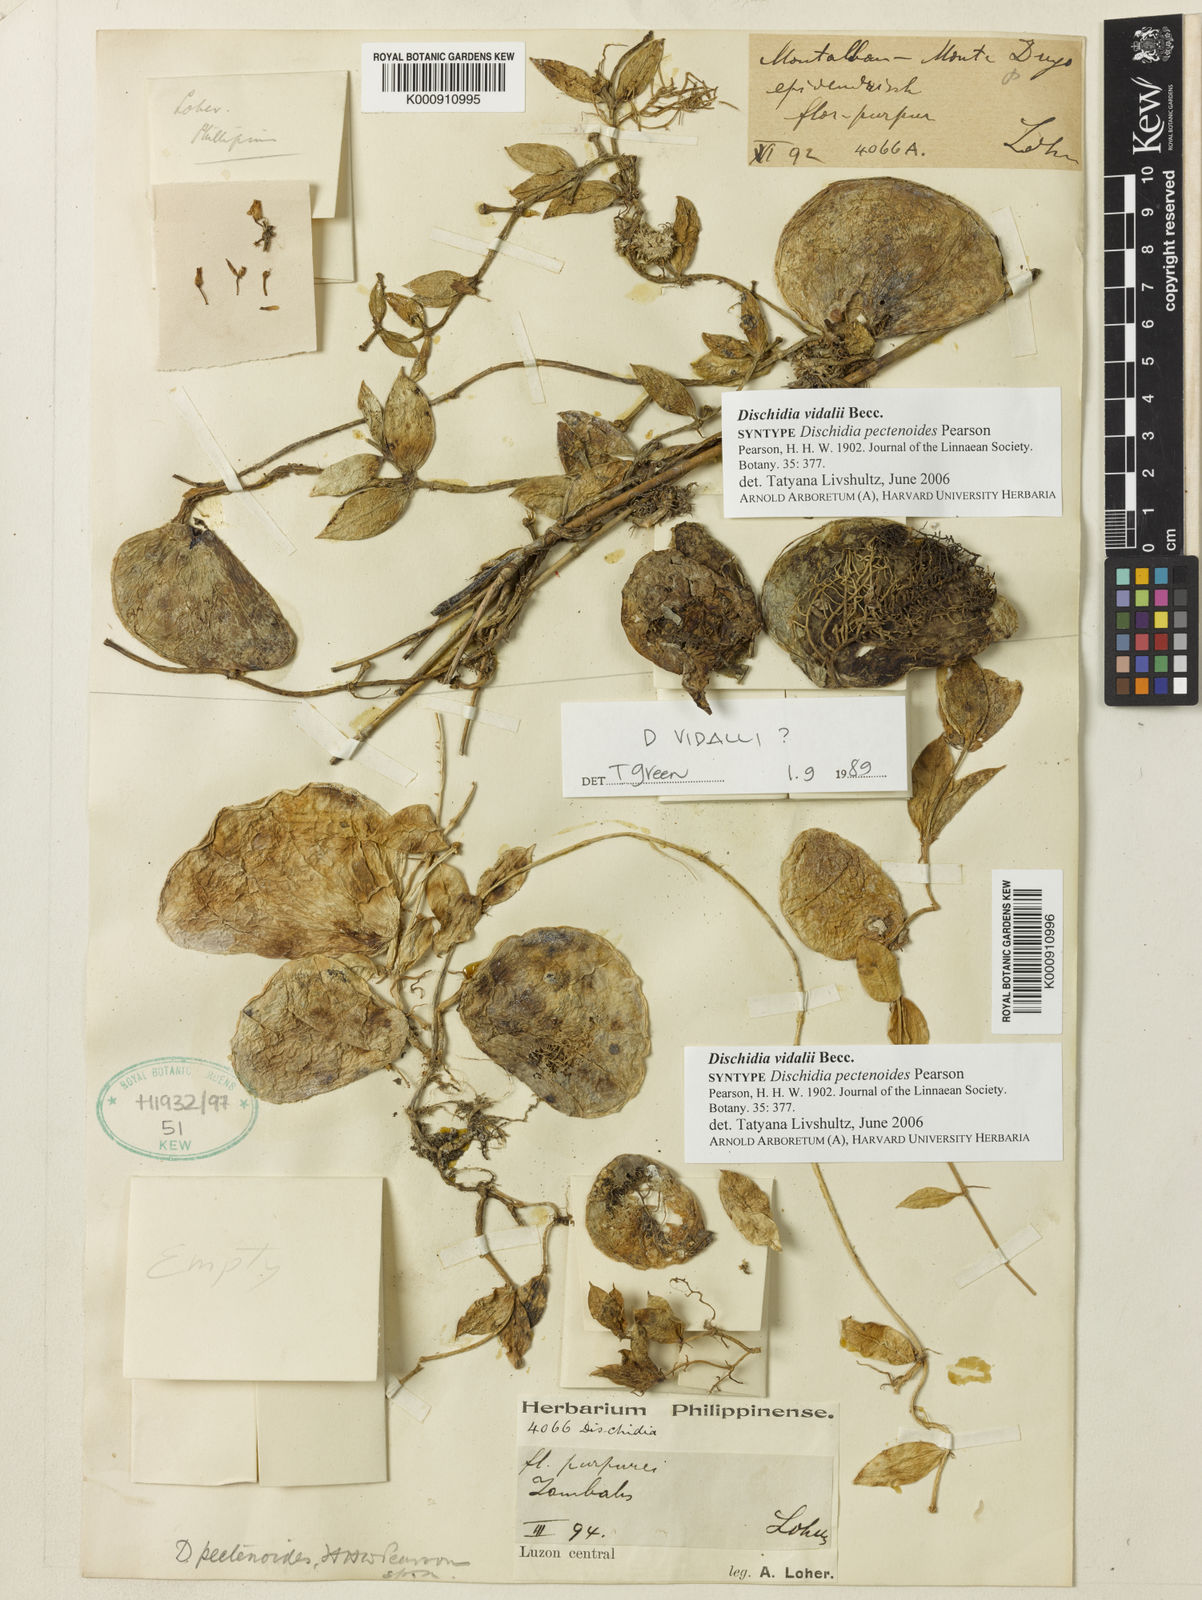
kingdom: Plantae
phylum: Tracheophyta
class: Magnoliopsida
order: Gentianales
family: Apocynaceae
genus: Dischidia
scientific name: Dischidia vidalii
